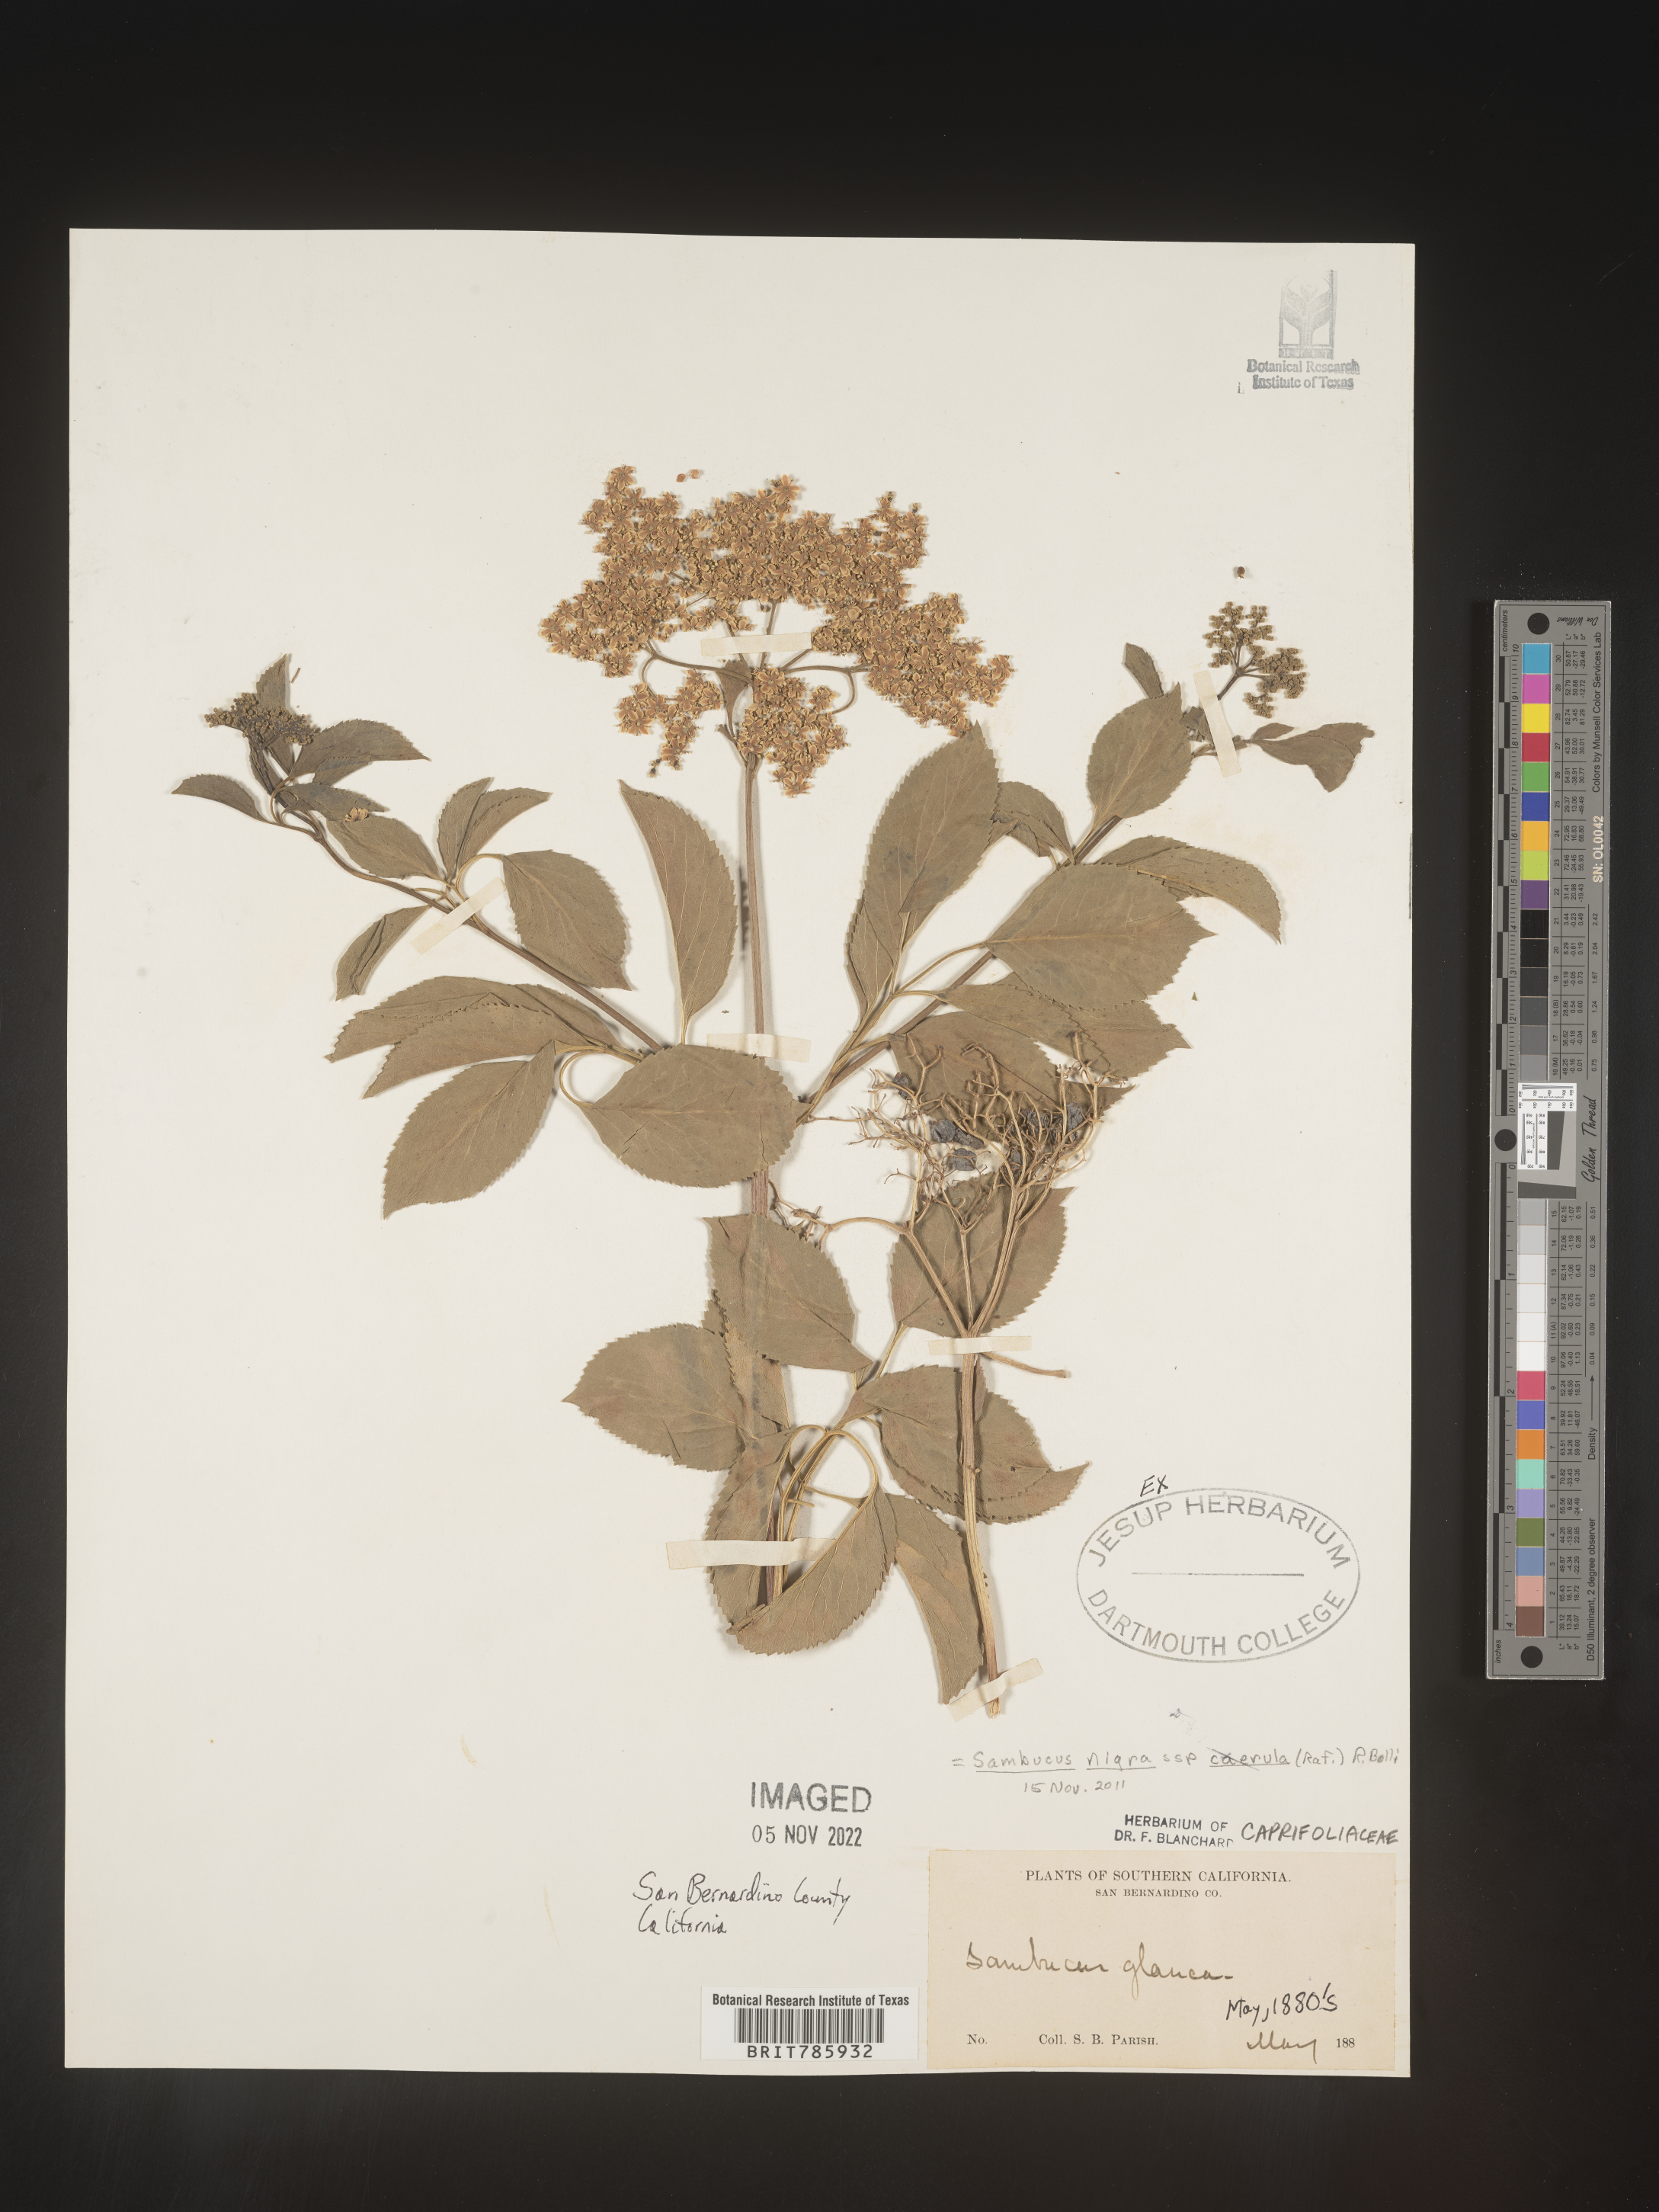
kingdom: Plantae
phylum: Tracheophyta
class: Magnoliopsida
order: Dipsacales
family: Viburnaceae
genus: Sambucus
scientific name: Sambucus nigra
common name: Elder
